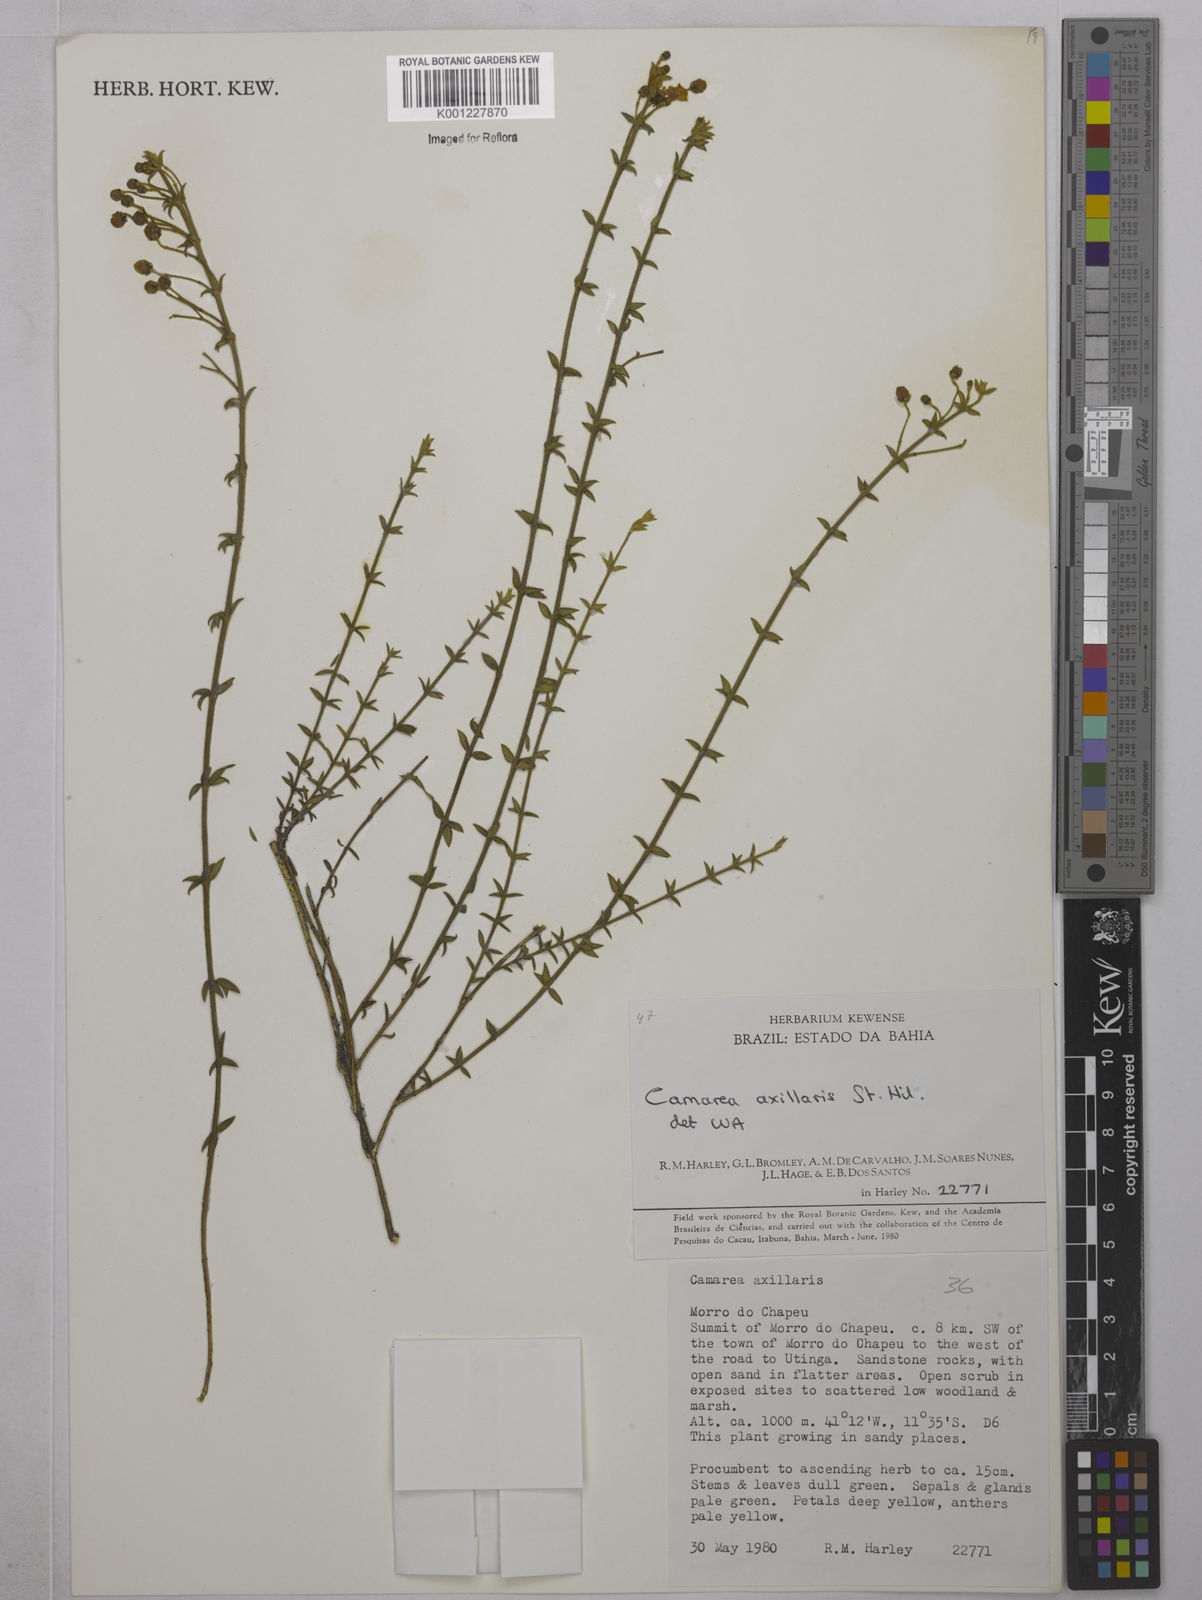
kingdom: Plantae
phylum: Tracheophyta
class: Magnoliopsida
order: Malpighiales
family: Malpighiaceae
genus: Camarea
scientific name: Camarea axillaris
